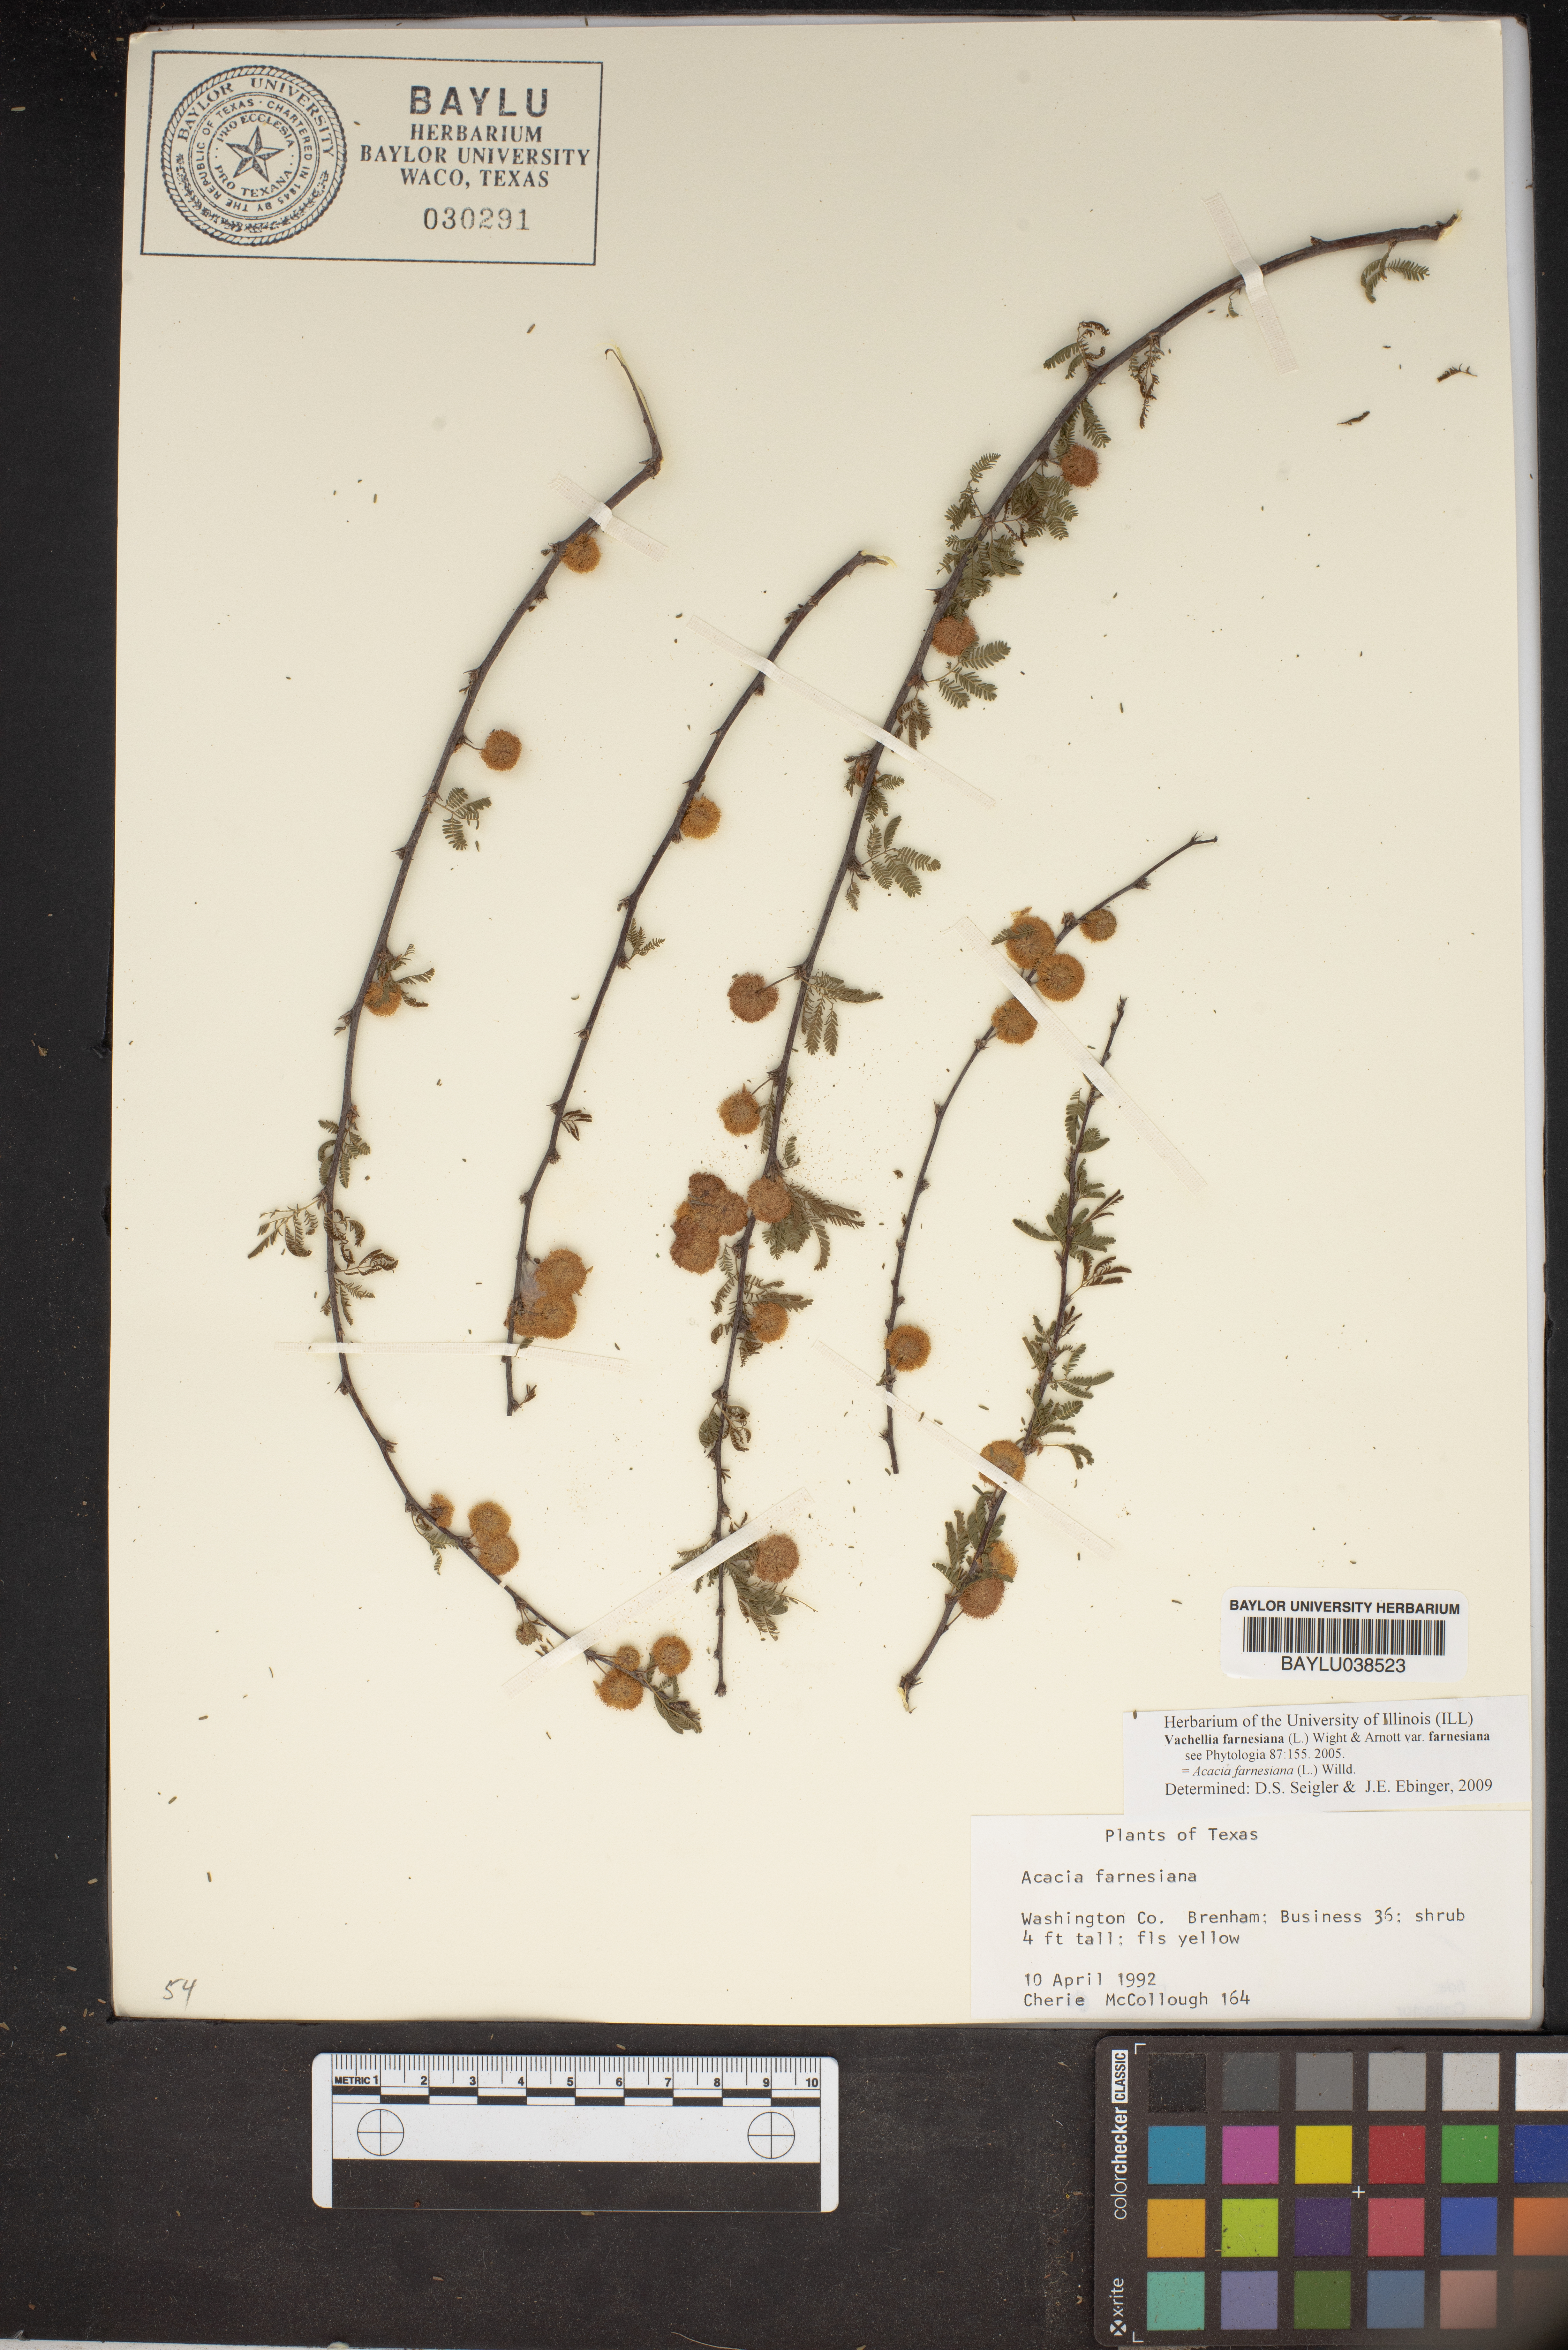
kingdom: Plantae
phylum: Tracheophyta
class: Magnoliopsida
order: Fabales
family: Fabaceae
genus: Vachellia
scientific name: Vachellia farnesiana
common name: Sweet acacia
